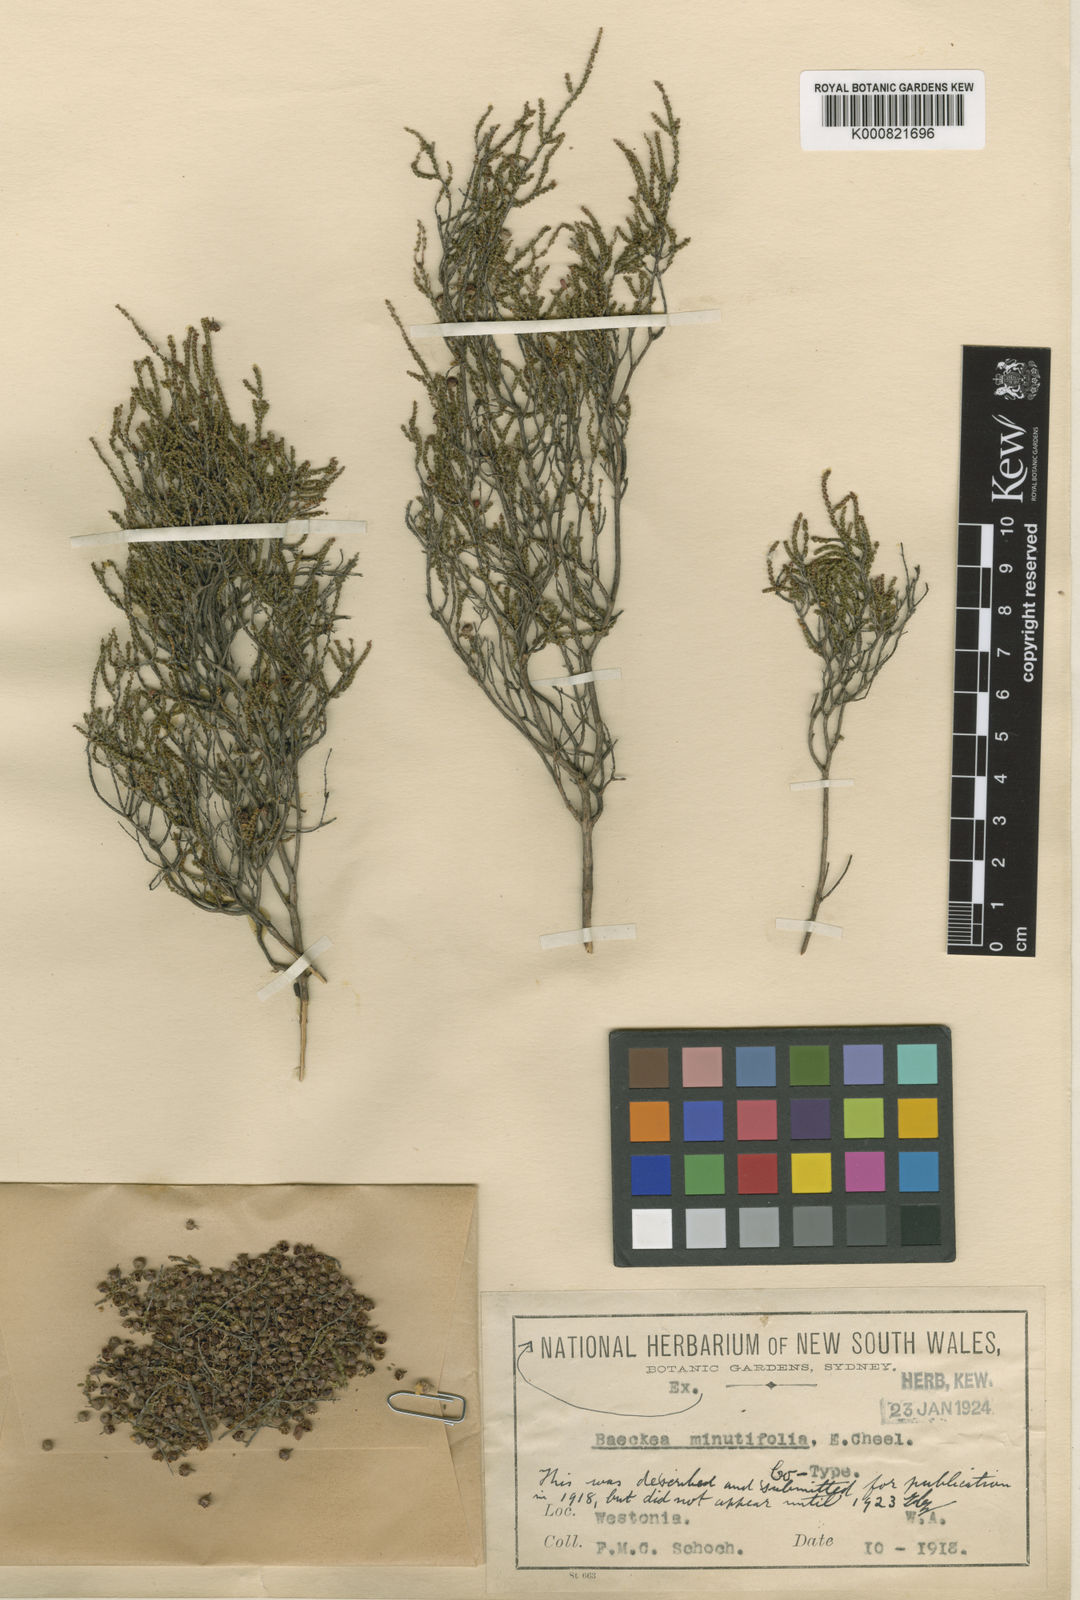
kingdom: Plantae
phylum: Tracheophyta
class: Magnoliopsida
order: Myrtales
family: Myrtaceae
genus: Rinzia
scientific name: Rinzia carnosa
